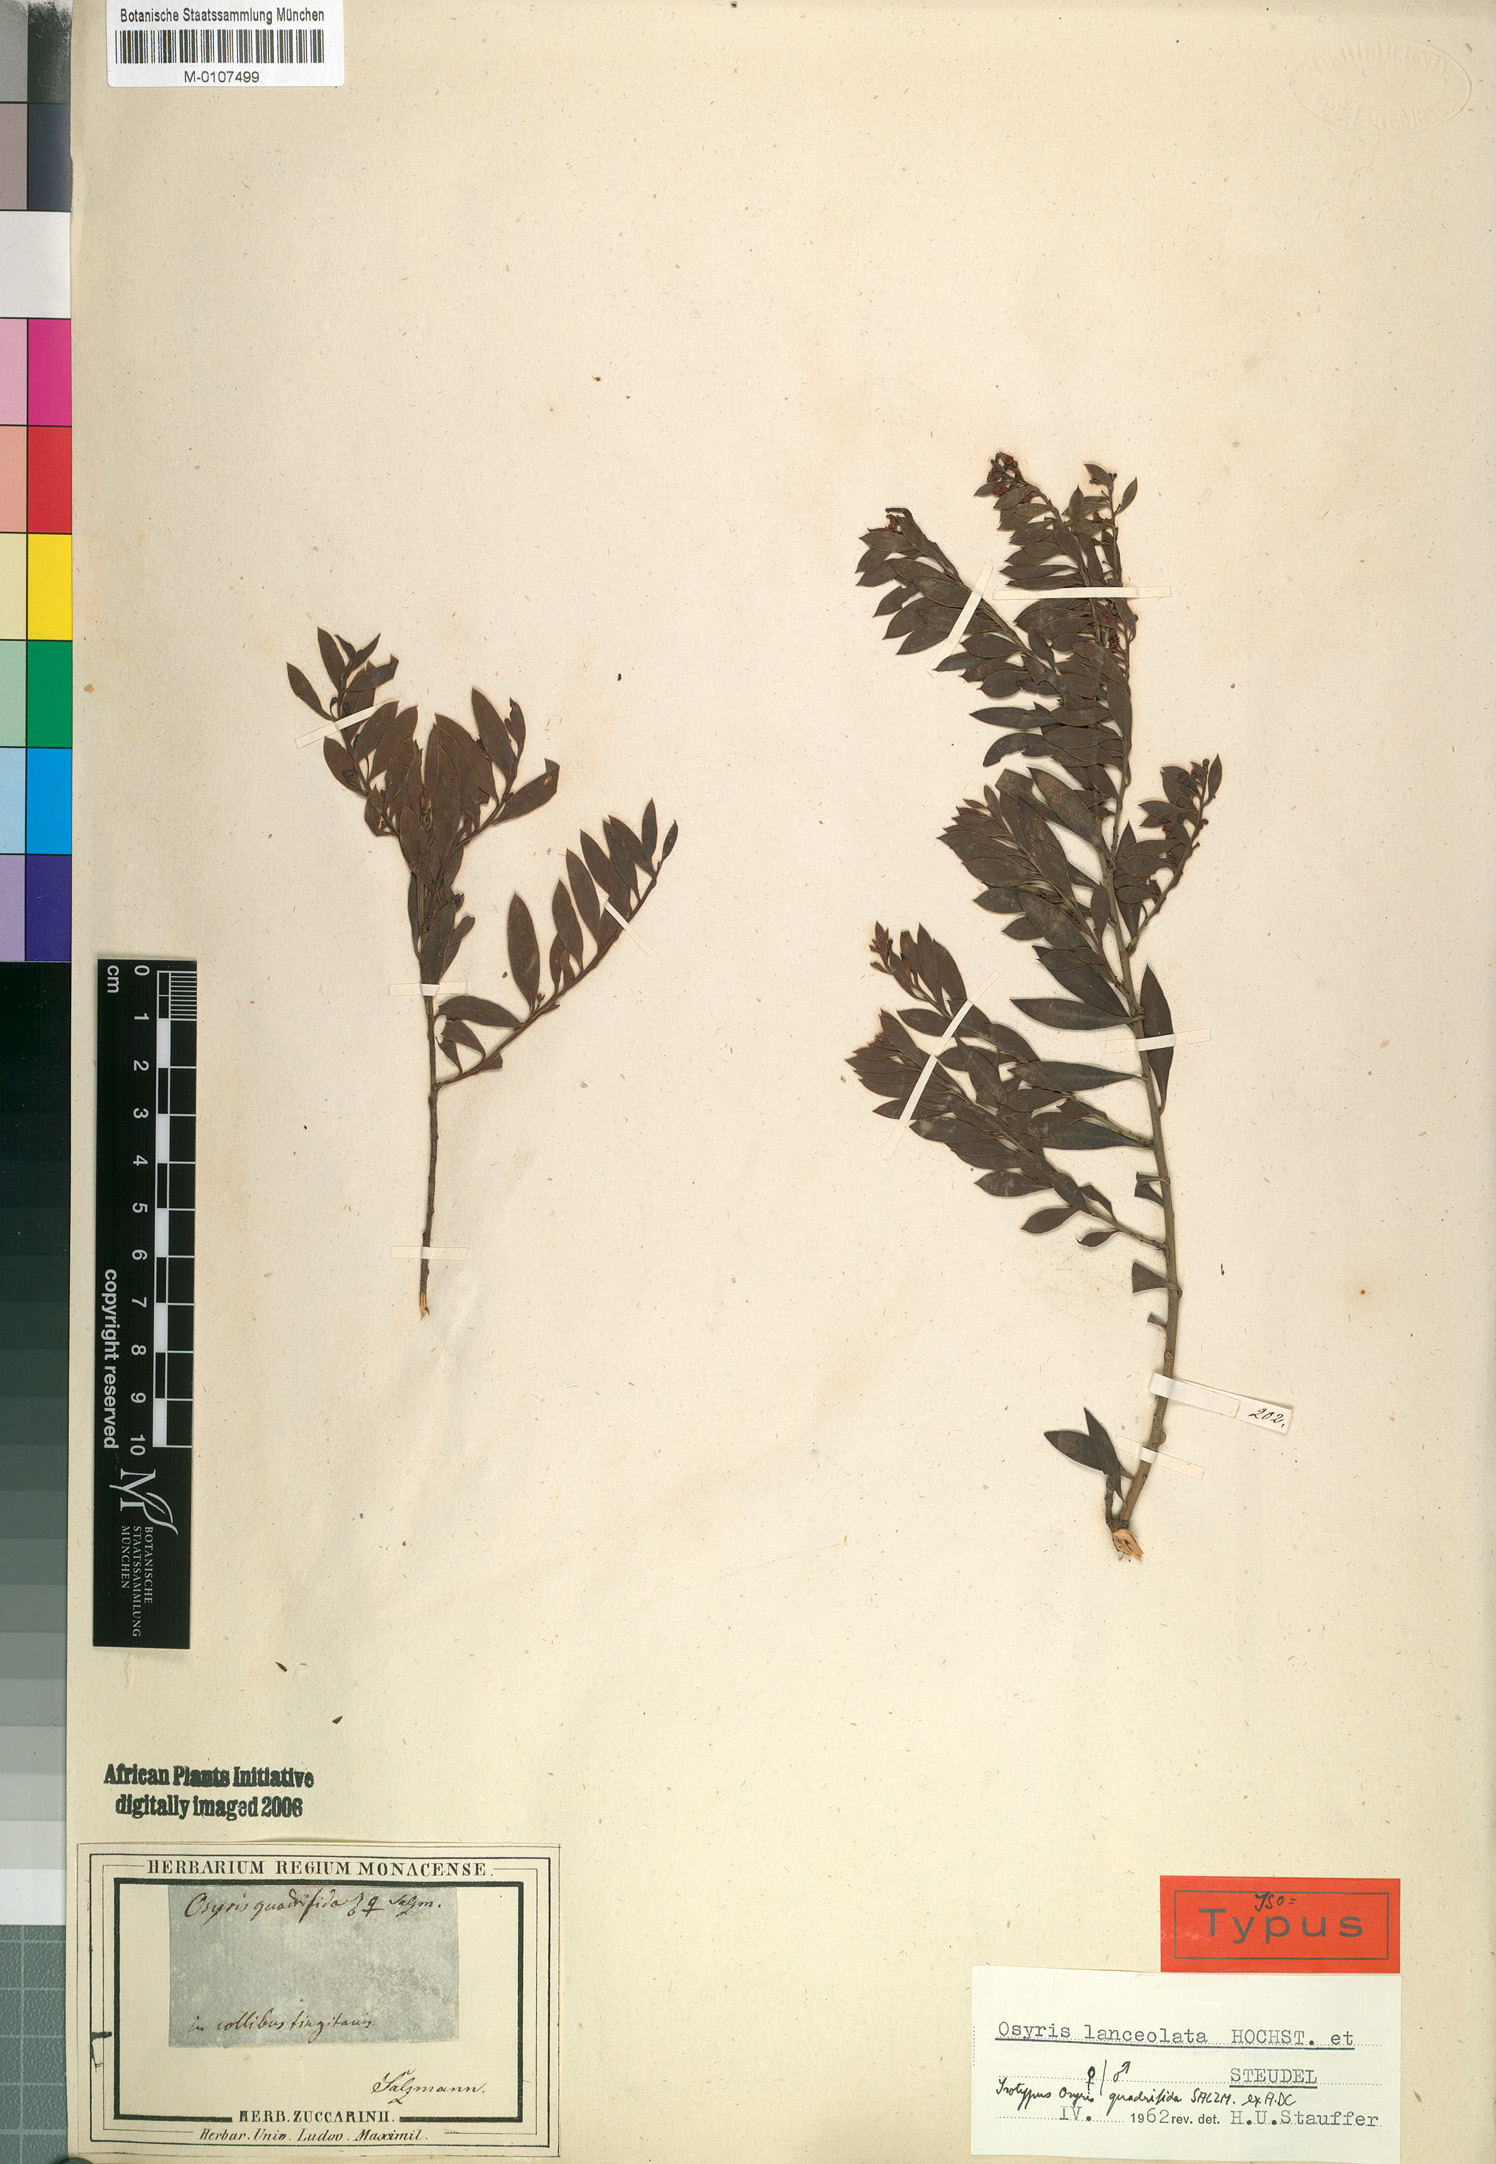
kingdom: Plantae
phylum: Tracheophyta
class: Magnoliopsida
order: Santalales
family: Santalaceae
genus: Osyris
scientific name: Osyris lanceolata
